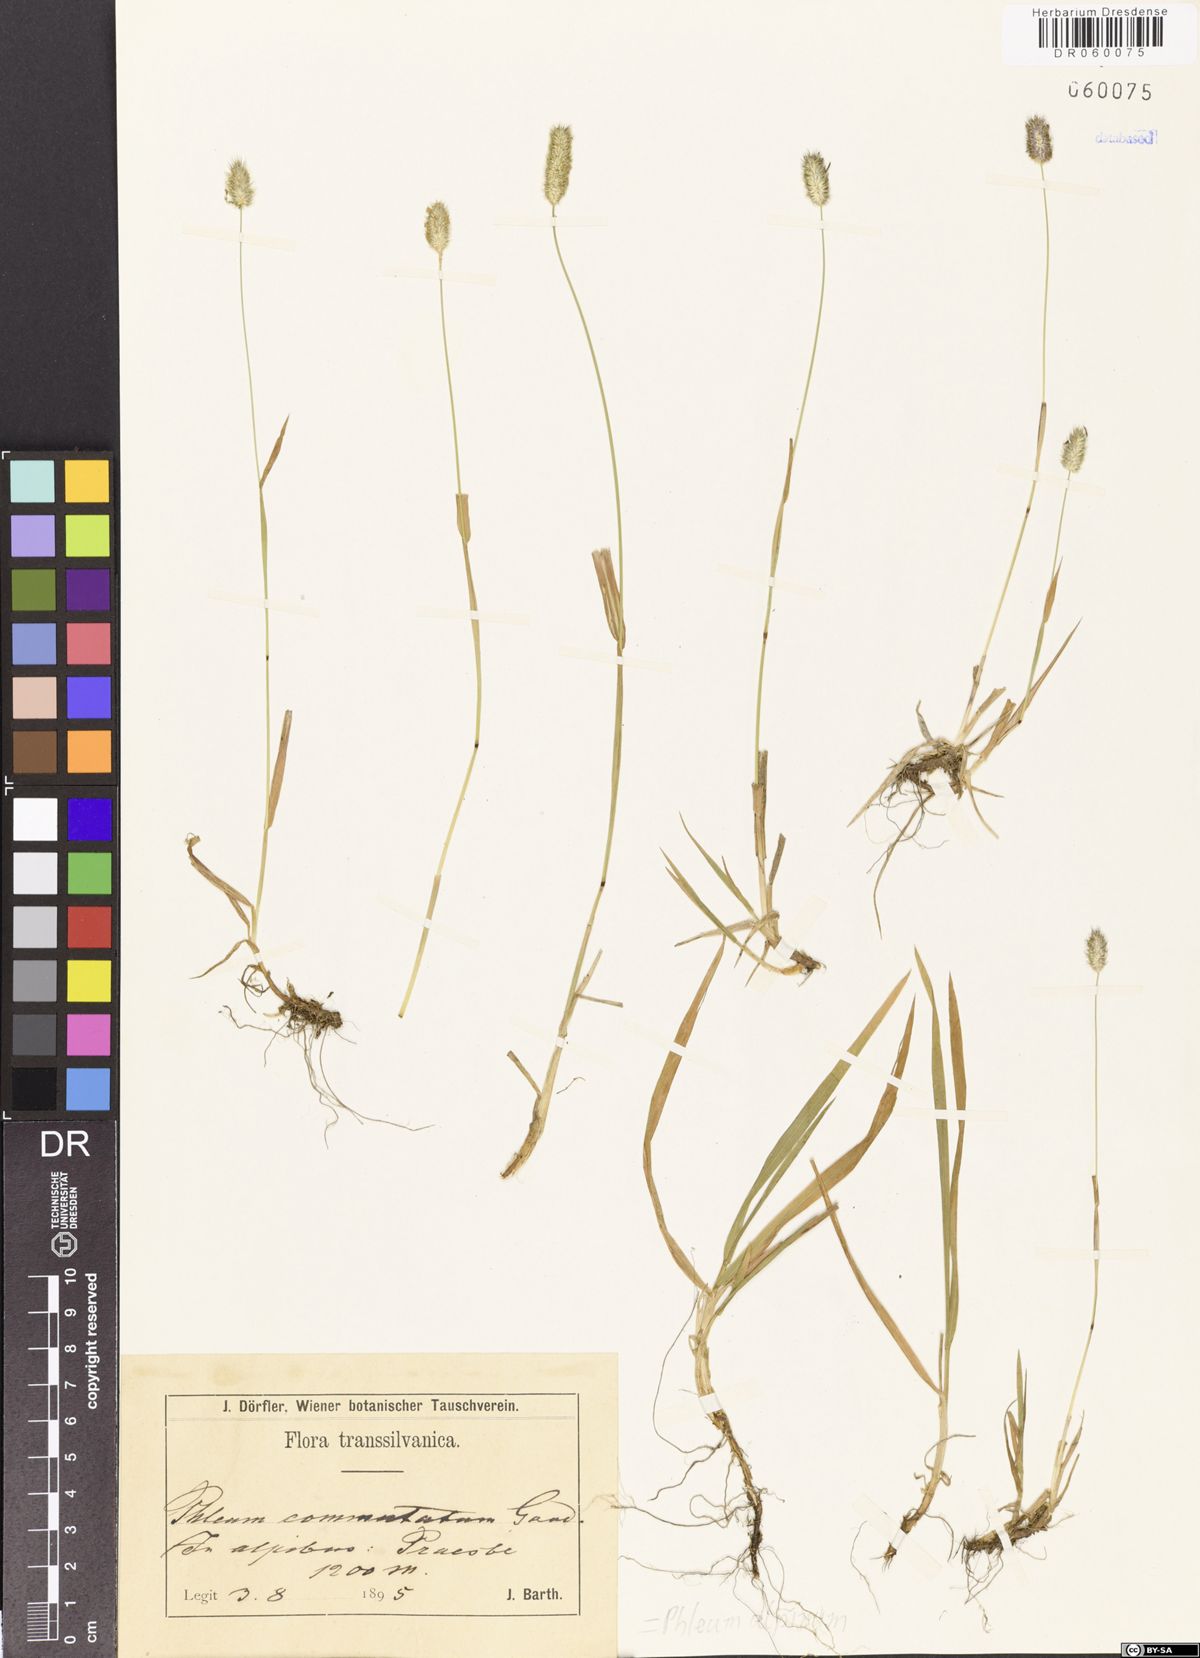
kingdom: Plantae
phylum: Tracheophyta
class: Liliopsida
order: Poales
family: Poaceae
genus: Phleum
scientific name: Phleum alpinum
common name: Alpine cat's-tail
